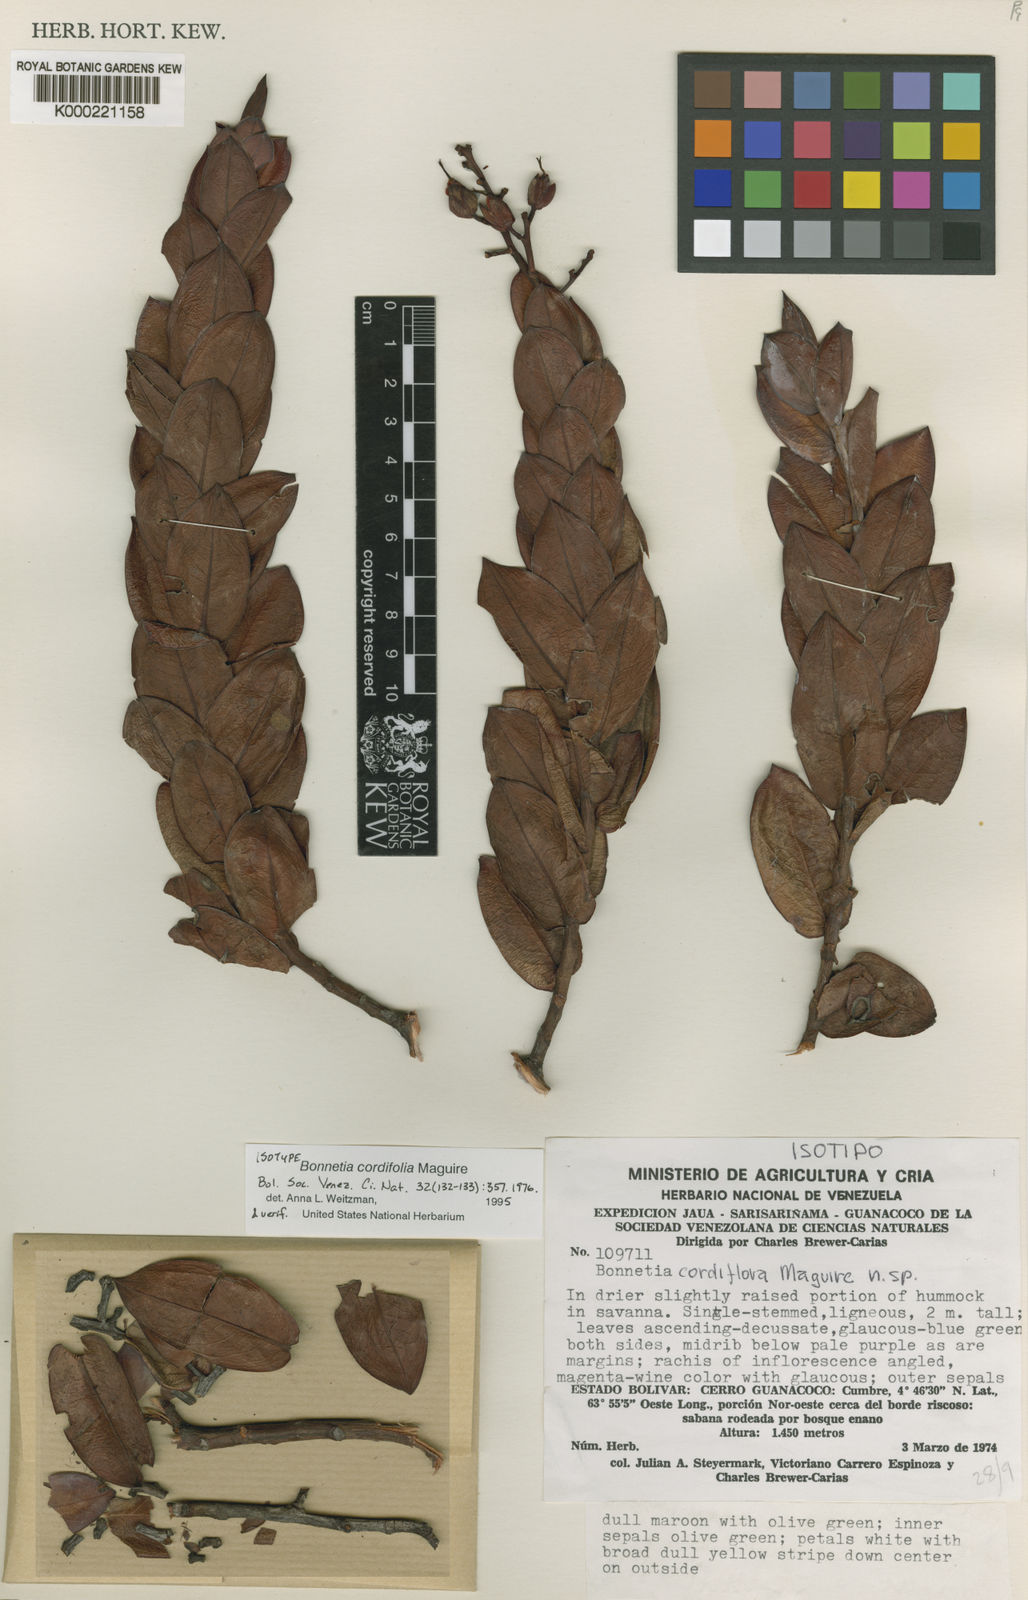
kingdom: Plantae
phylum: Tracheophyta
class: Magnoliopsida
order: Malpighiales
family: Bonnetiaceae
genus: Bonnetia
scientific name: Bonnetia cordifolia
